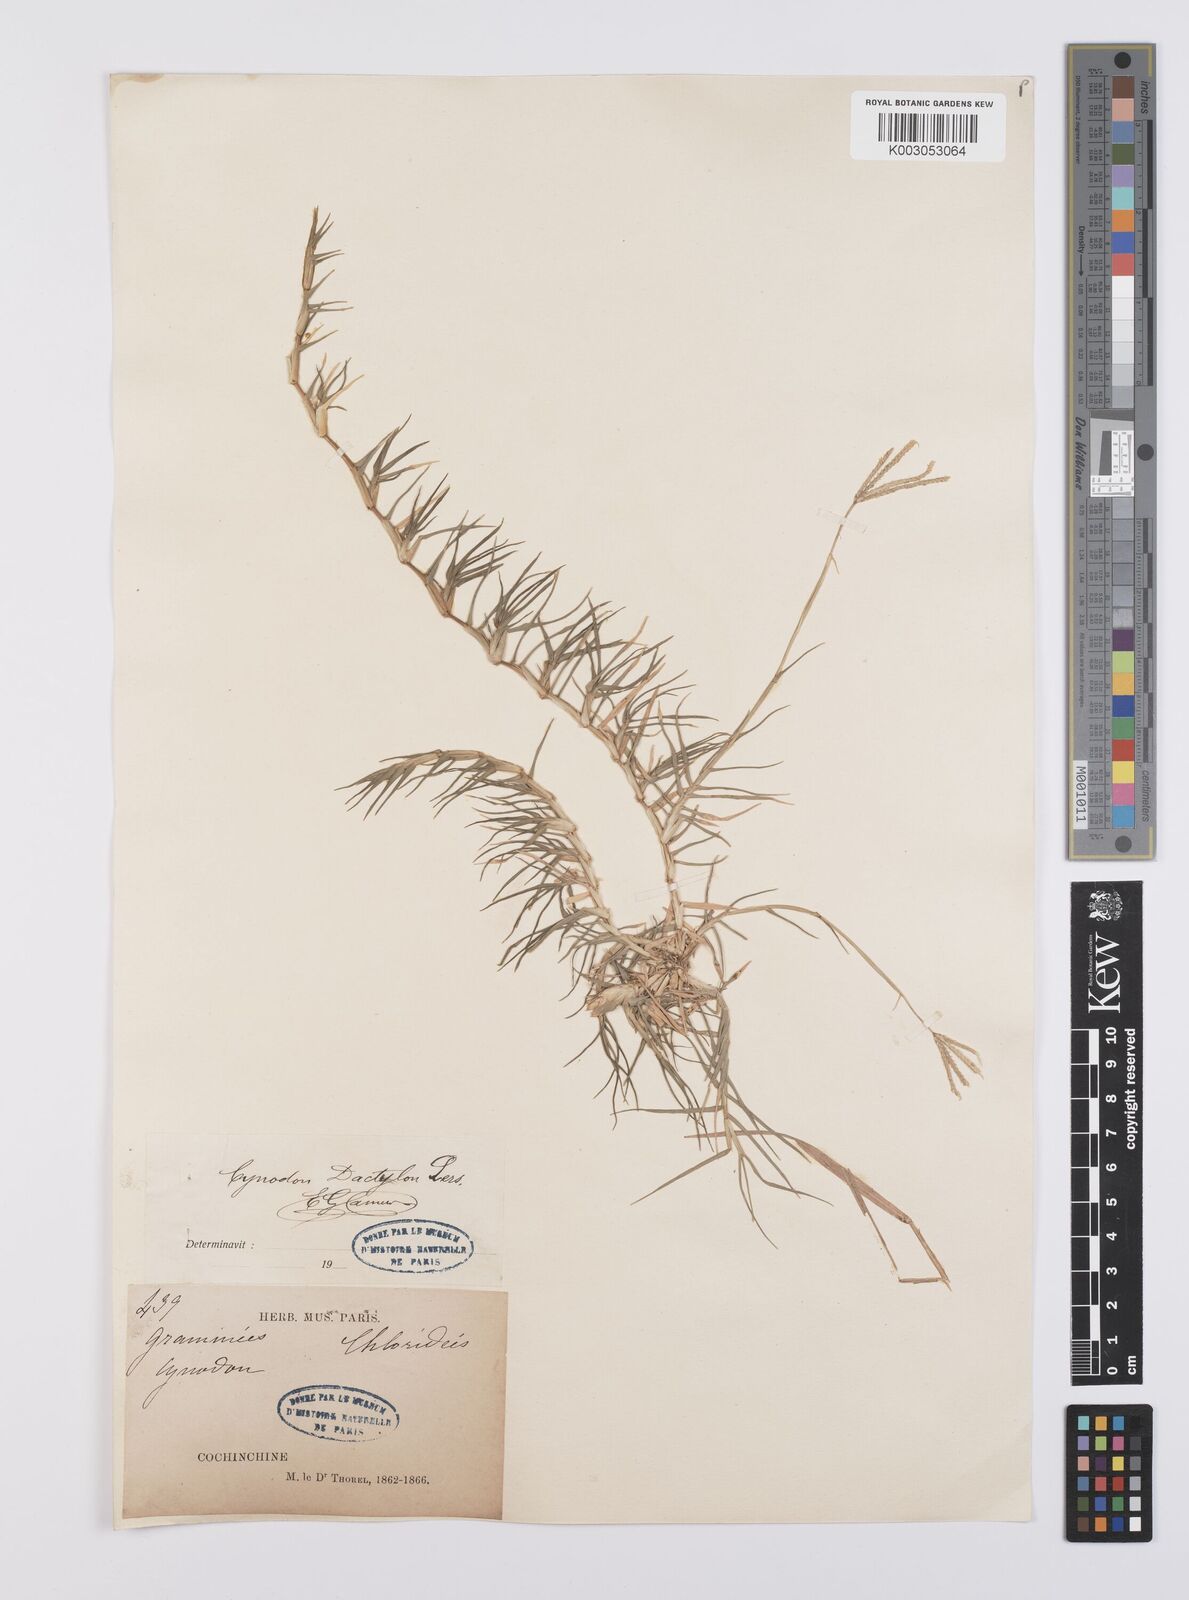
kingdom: Plantae
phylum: Tracheophyta
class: Liliopsida
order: Poales
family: Poaceae
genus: Cynodon
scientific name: Cynodon dactylon
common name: Bermuda grass
